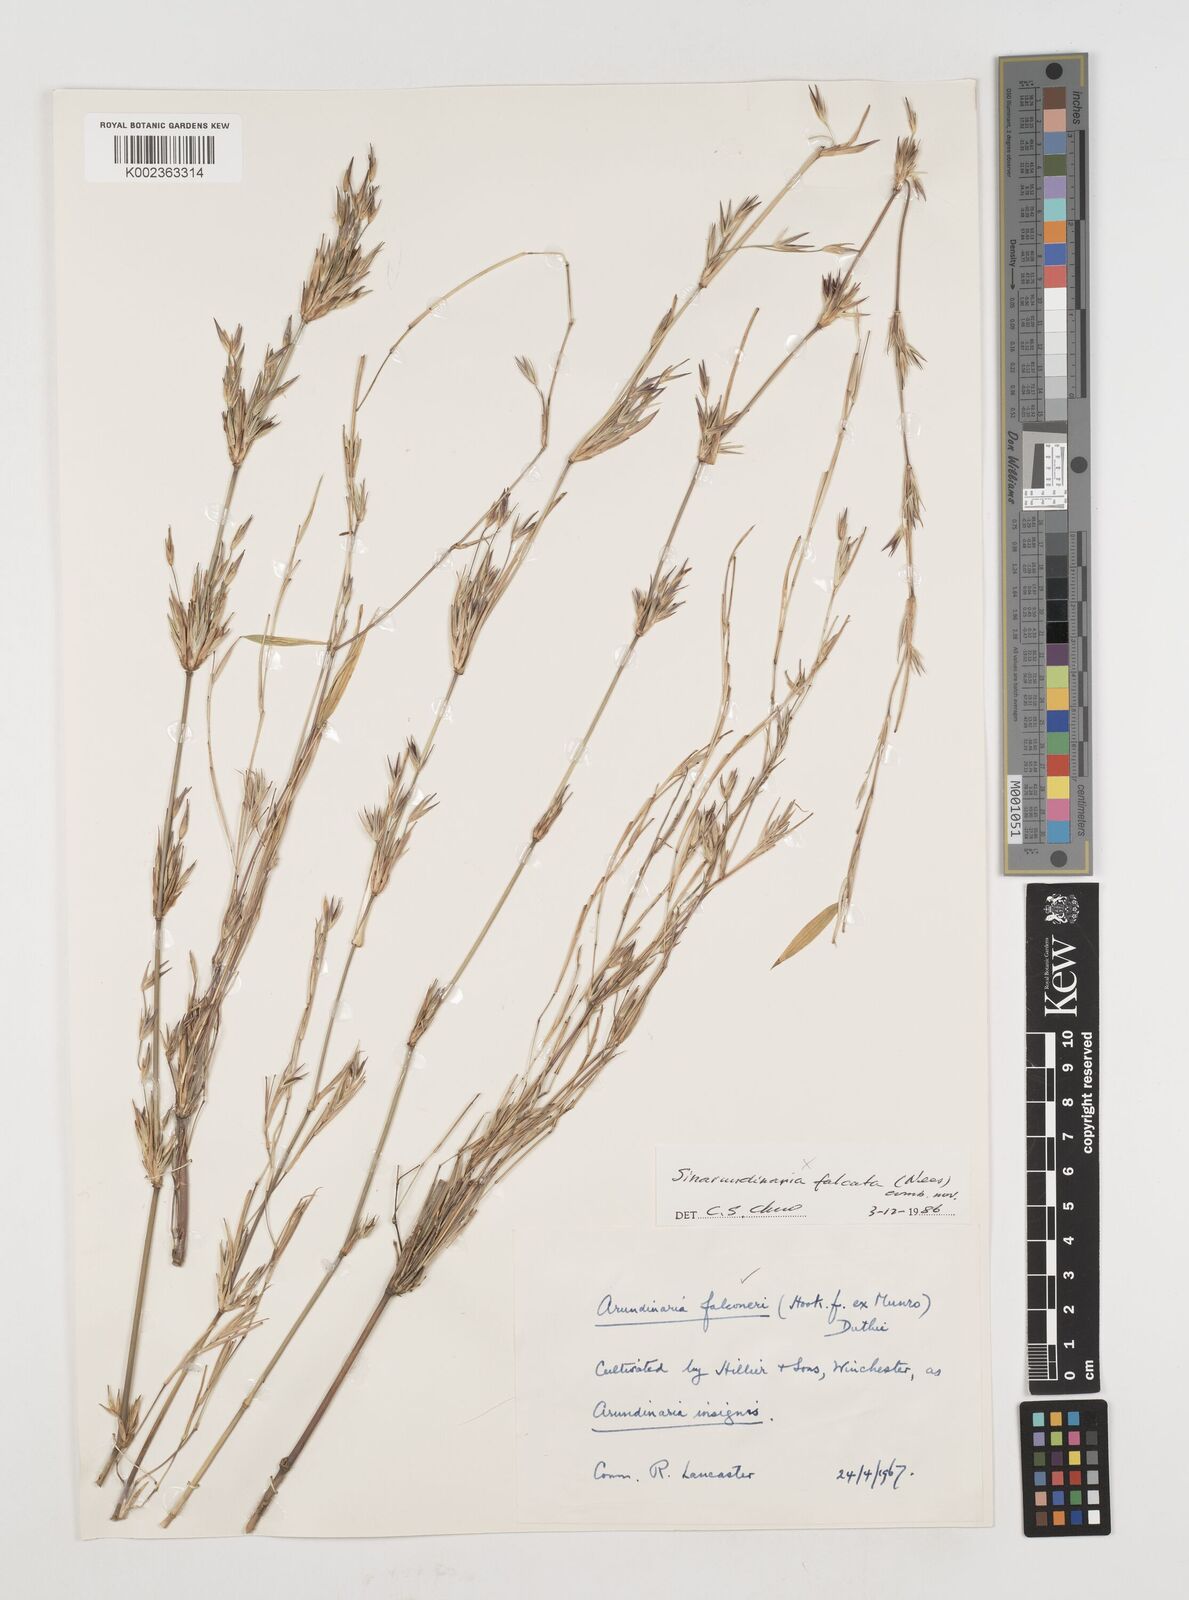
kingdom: Plantae
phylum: Tracheophyta
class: Liliopsida
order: Poales
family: Poaceae
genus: Himalayacalamus
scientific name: Himalayacalamus falconeri
